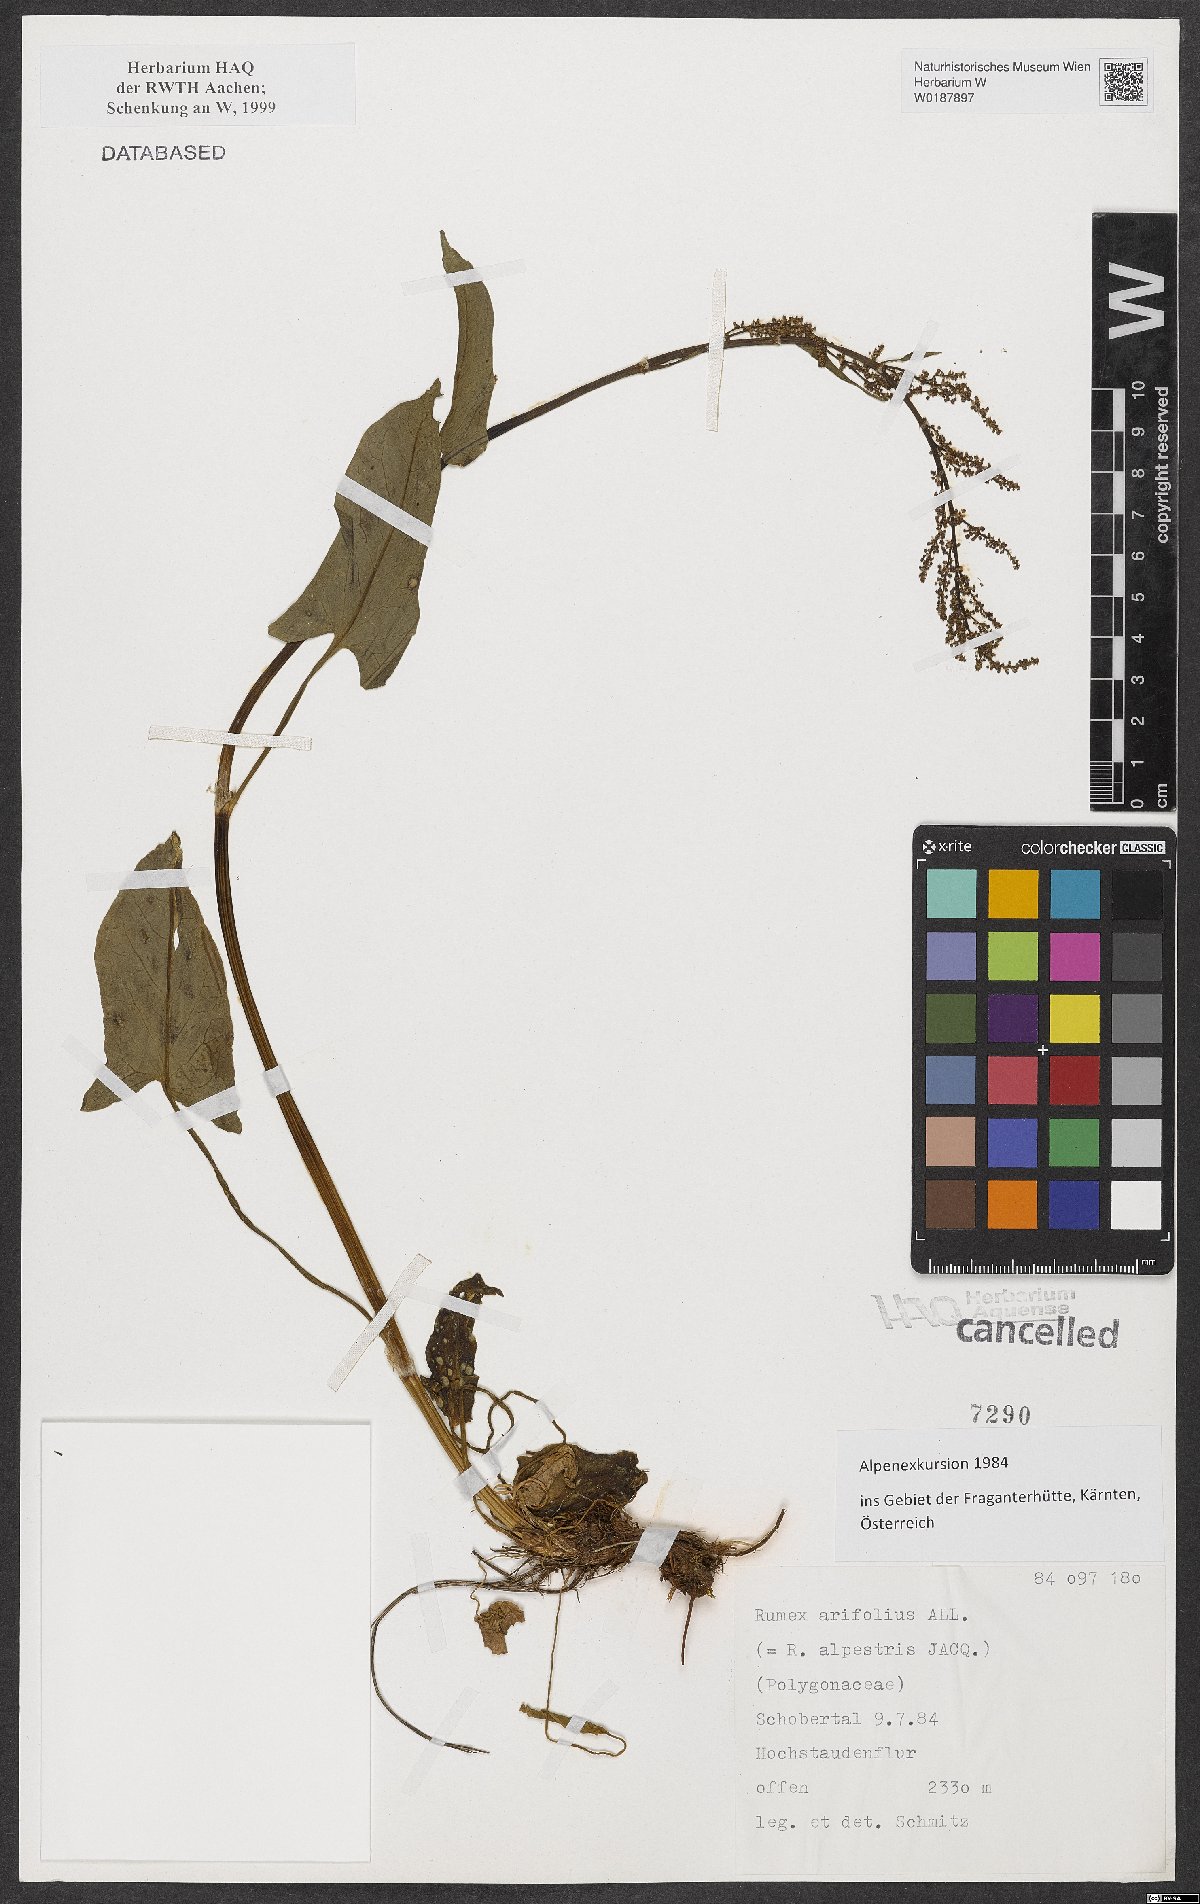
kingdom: Plantae
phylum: Tracheophyta
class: Magnoliopsida
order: Caryophyllales
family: Polygonaceae
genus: Rumex
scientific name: Rumex arifolius
